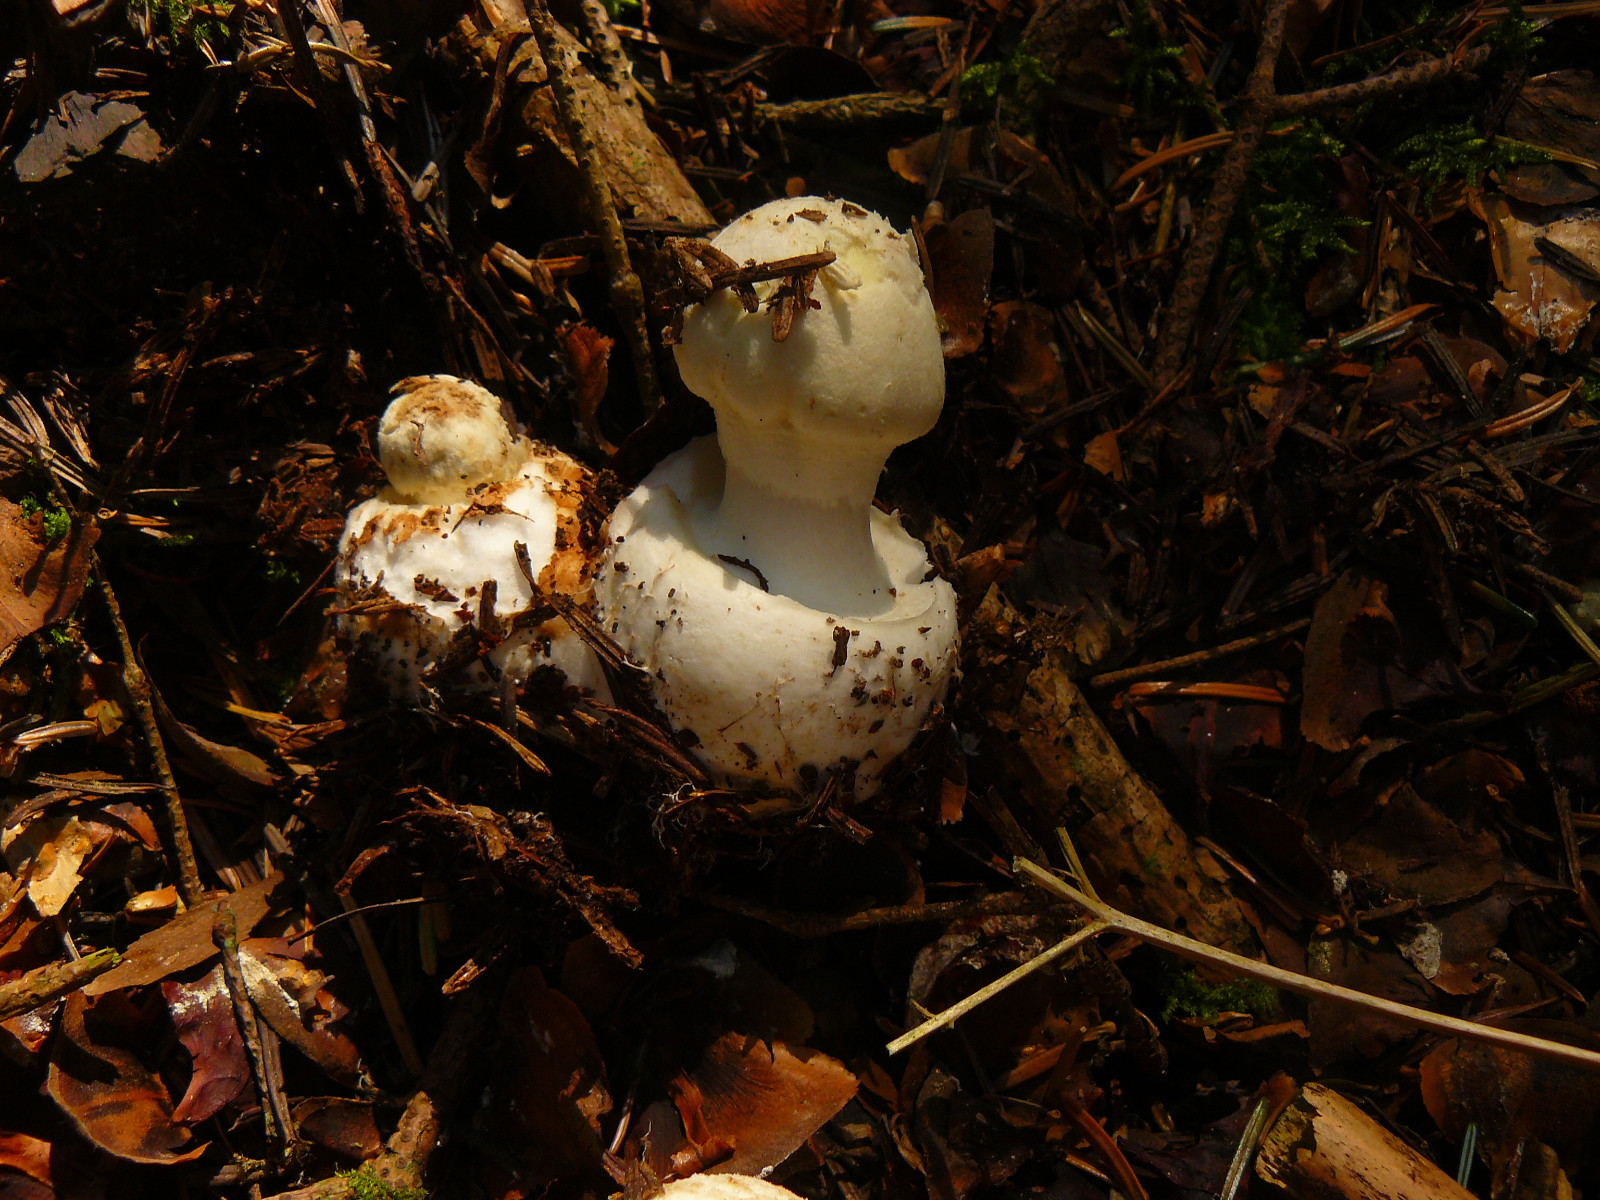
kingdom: Fungi
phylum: Basidiomycota
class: Agaricomycetes
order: Agaricales
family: Amanitaceae
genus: Amanita
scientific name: Amanita citrina
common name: kugleknoldet fluesvamp
